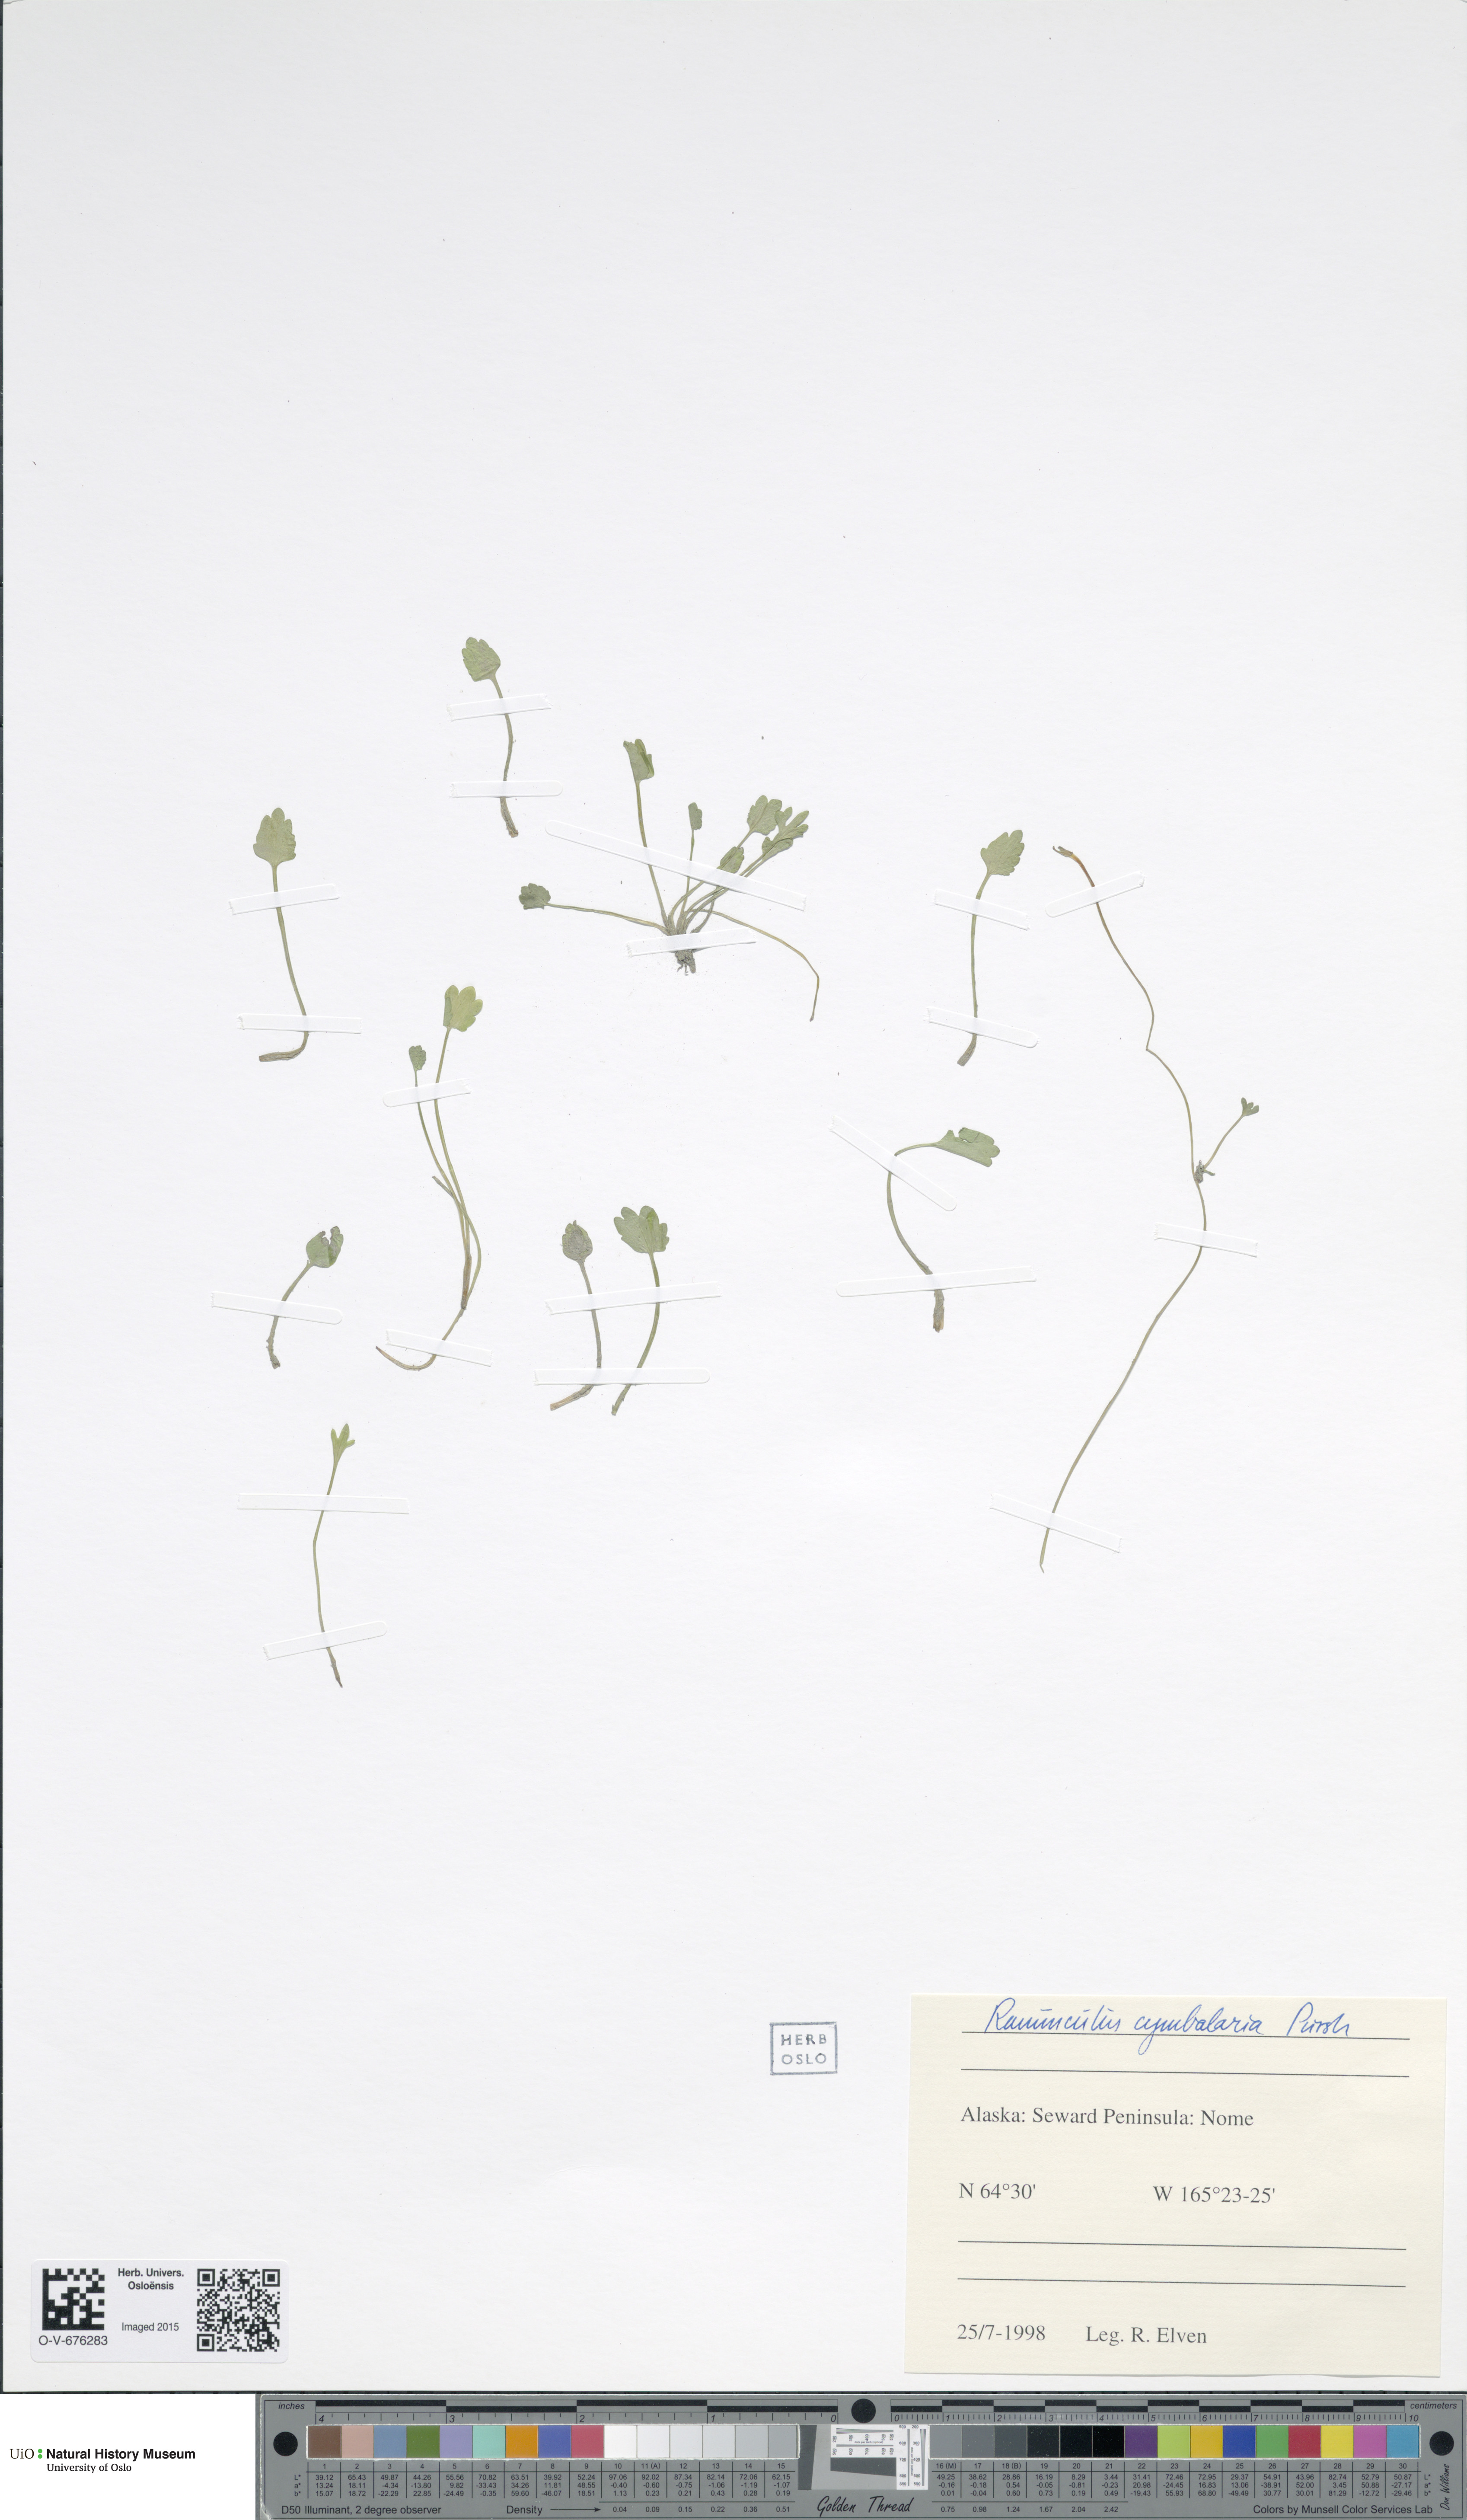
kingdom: Plantae
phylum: Tracheophyta
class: Magnoliopsida
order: Ranunculales
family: Ranunculaceae
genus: Halerpestes
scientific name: Halerpestes cymbalaria
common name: Seaside crowfoot
